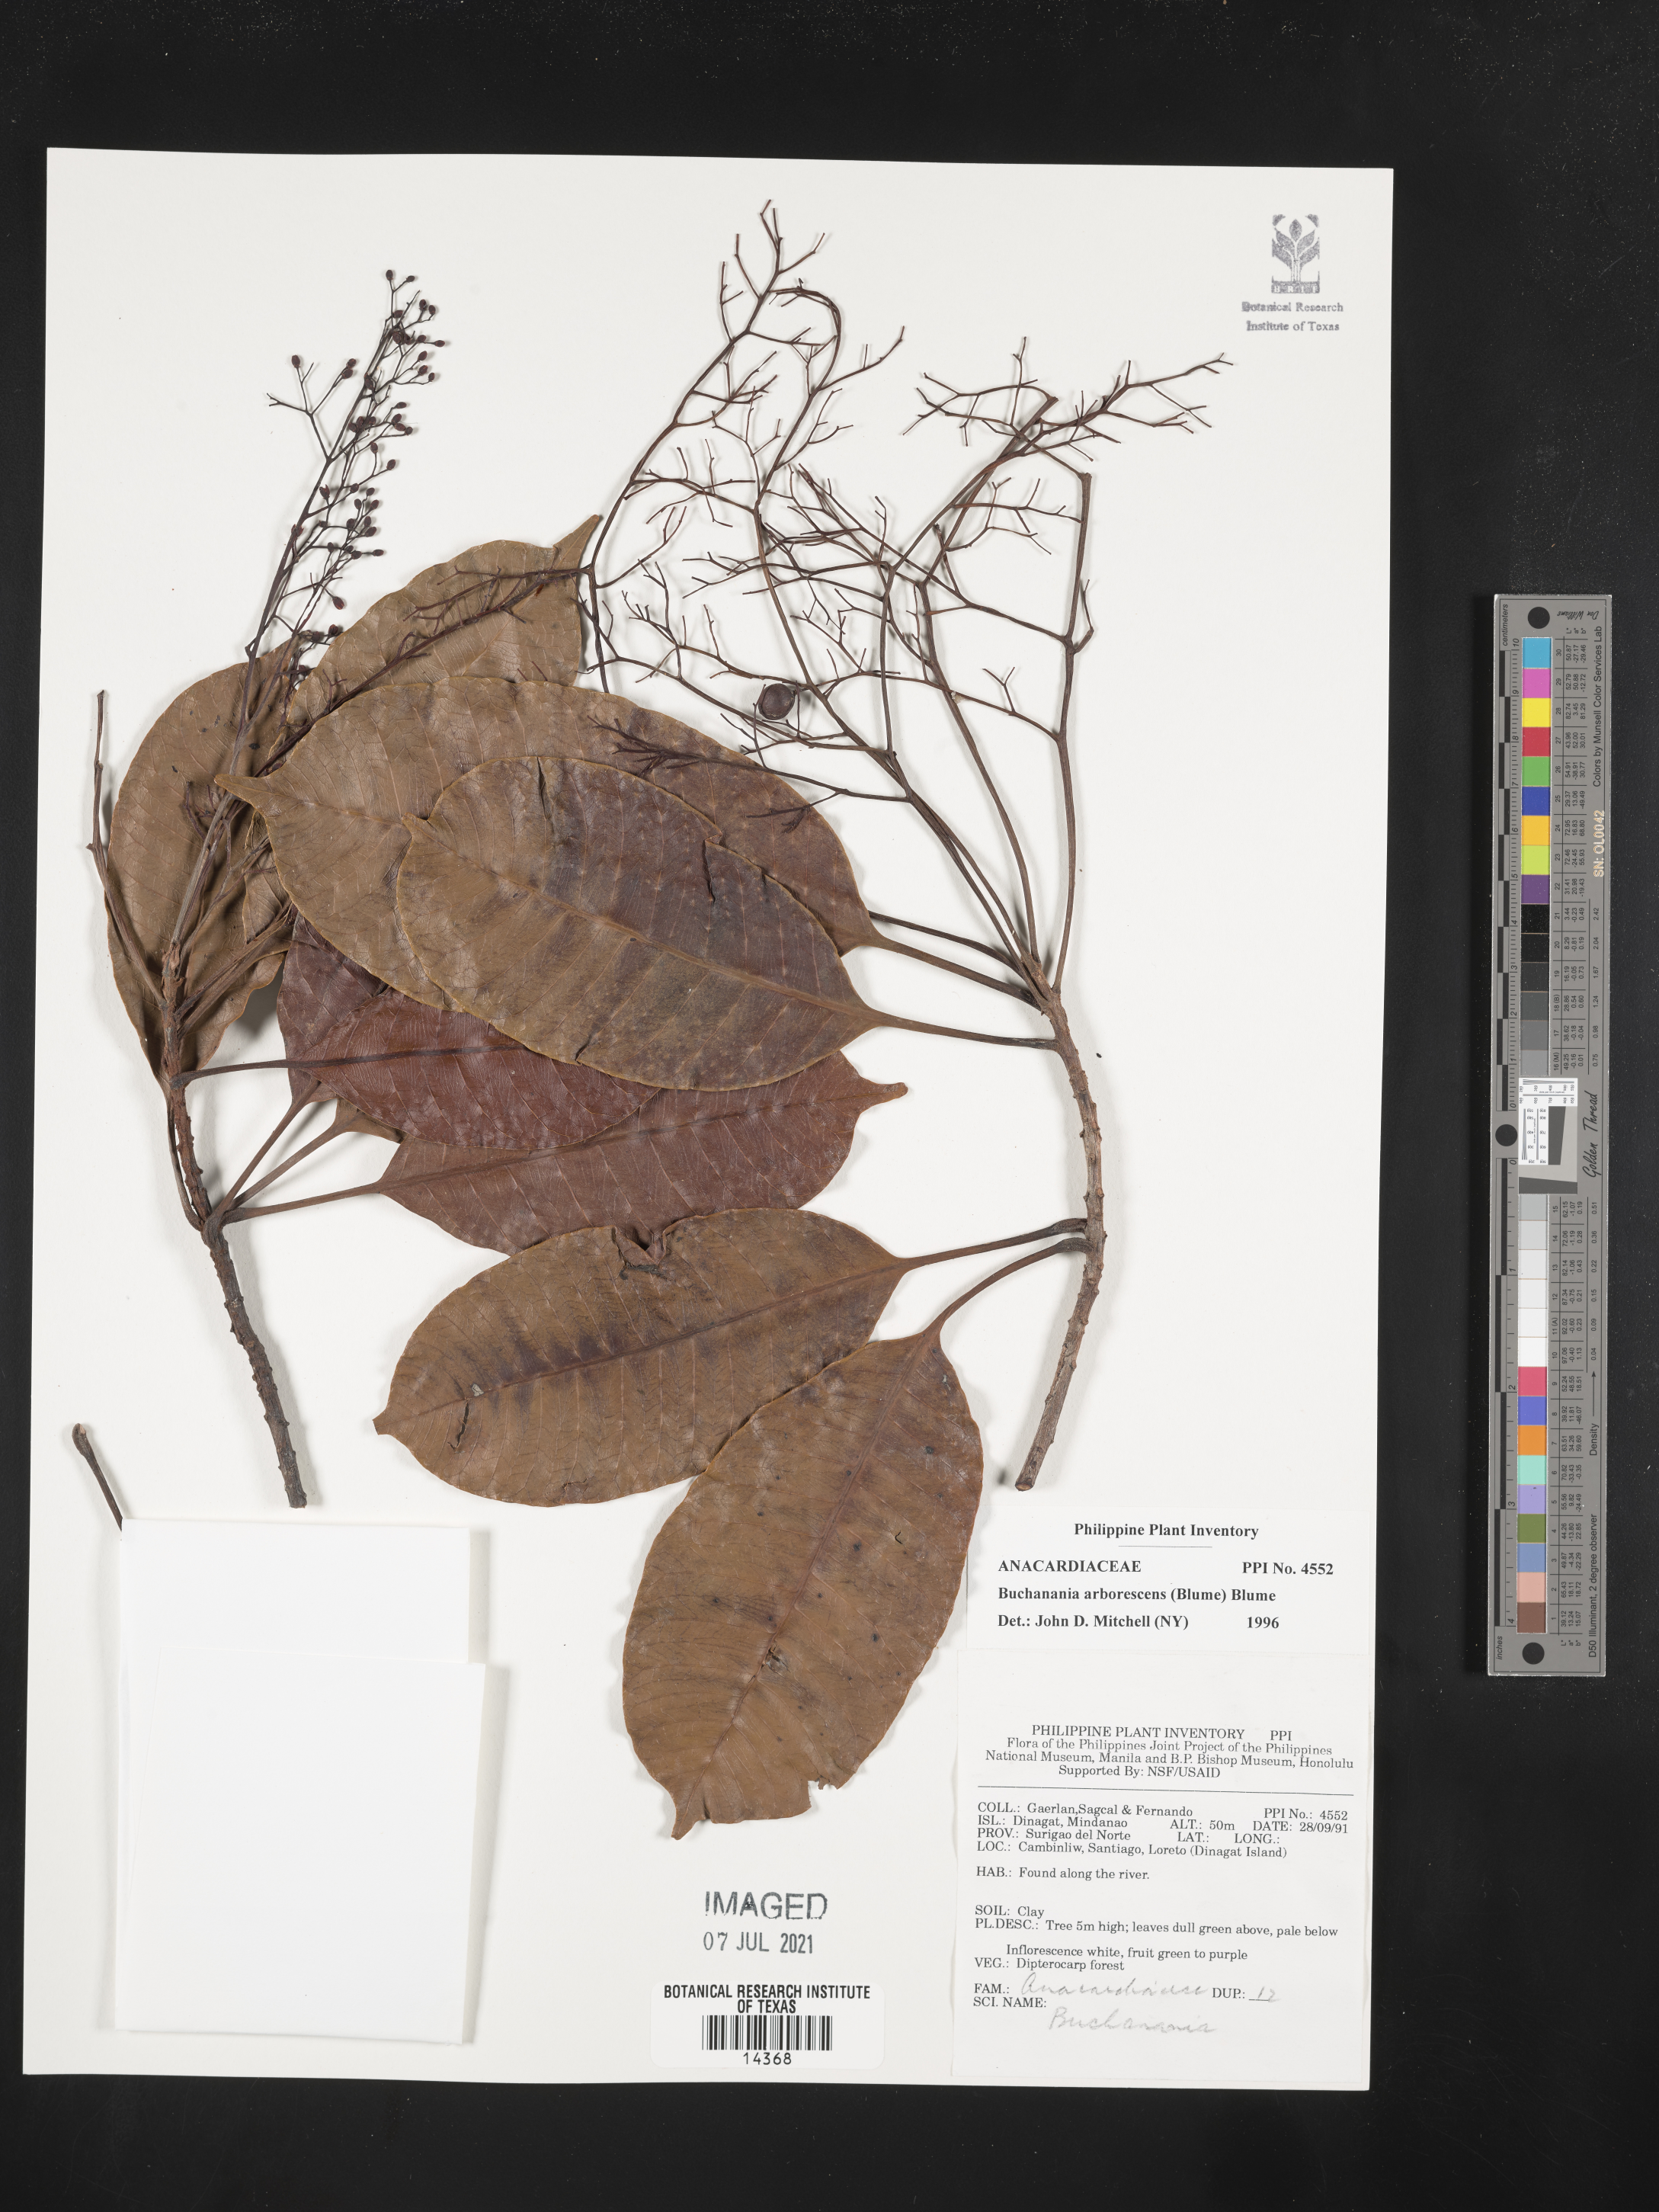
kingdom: Plantae
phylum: Tracheophyta
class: Magnoliopsida
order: Sapindales
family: Anacardiaceae
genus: Buchanania
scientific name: Buchanania arborescens
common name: Sparrow’s mango
